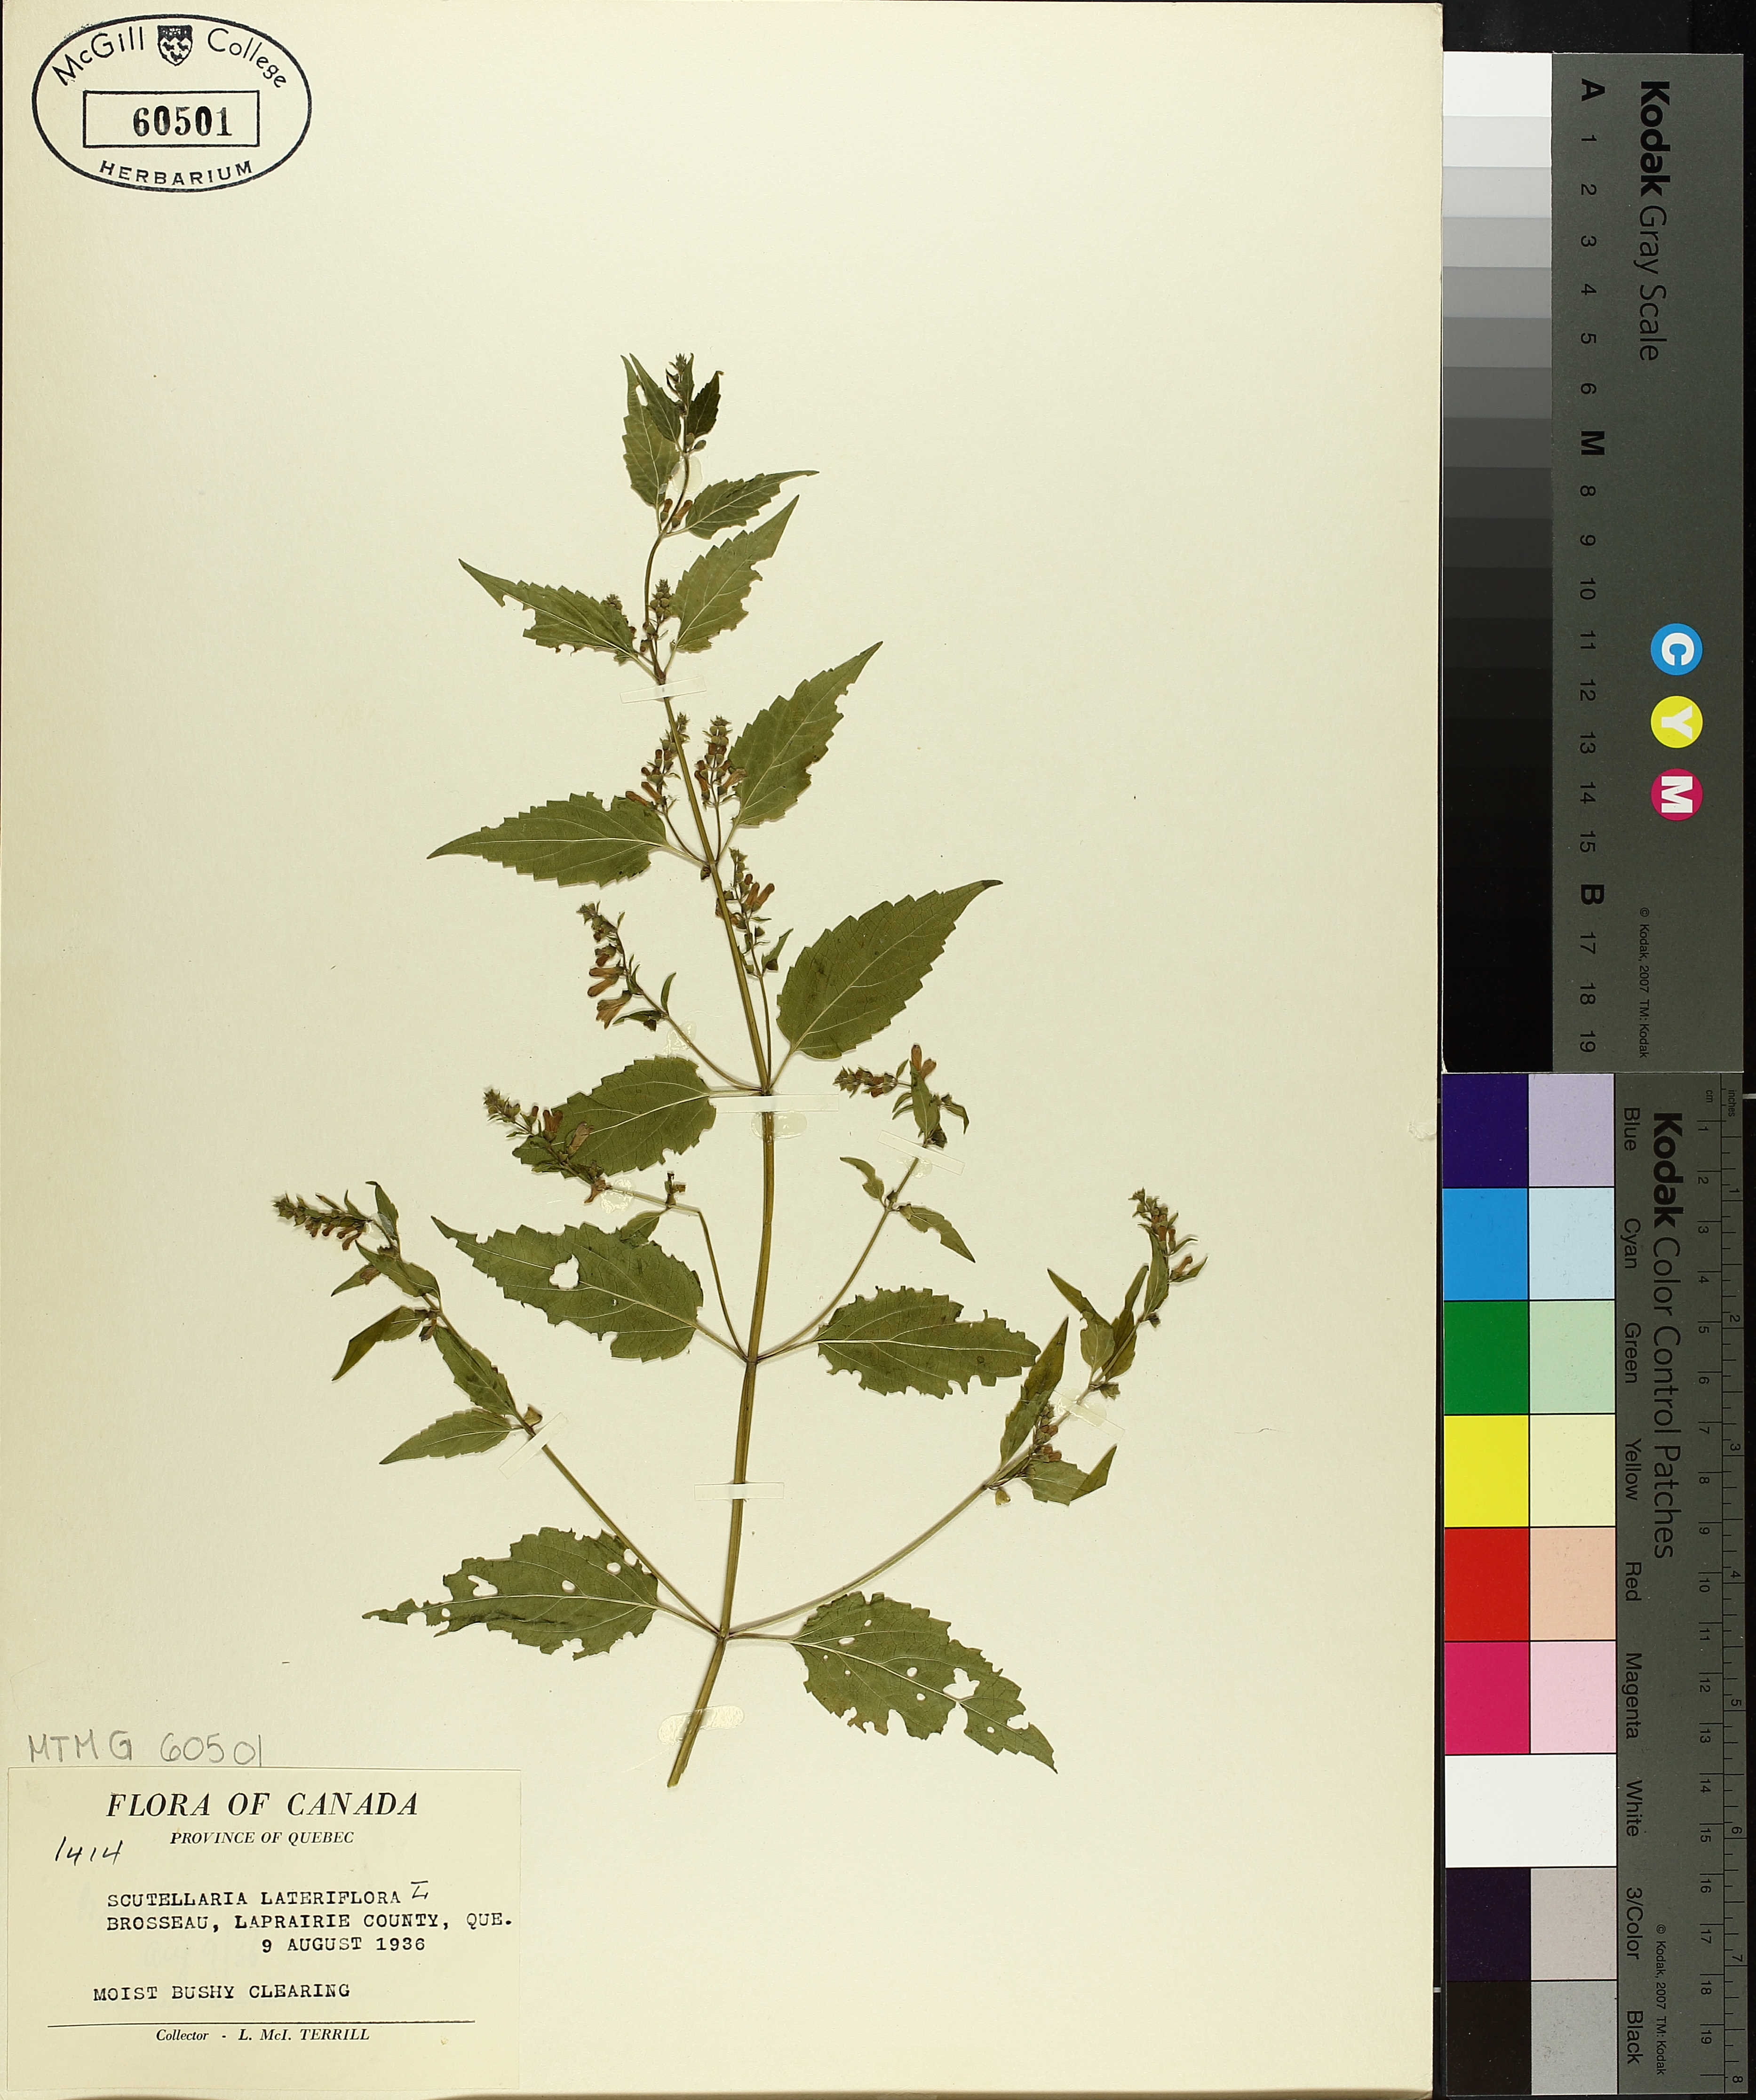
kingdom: Plantae
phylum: Tracheophyta
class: Magnoliopsida
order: Lamiales
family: Lamiaceae
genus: Scutellaria
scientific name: Scutellaria lateriflora
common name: Blue skullcap
